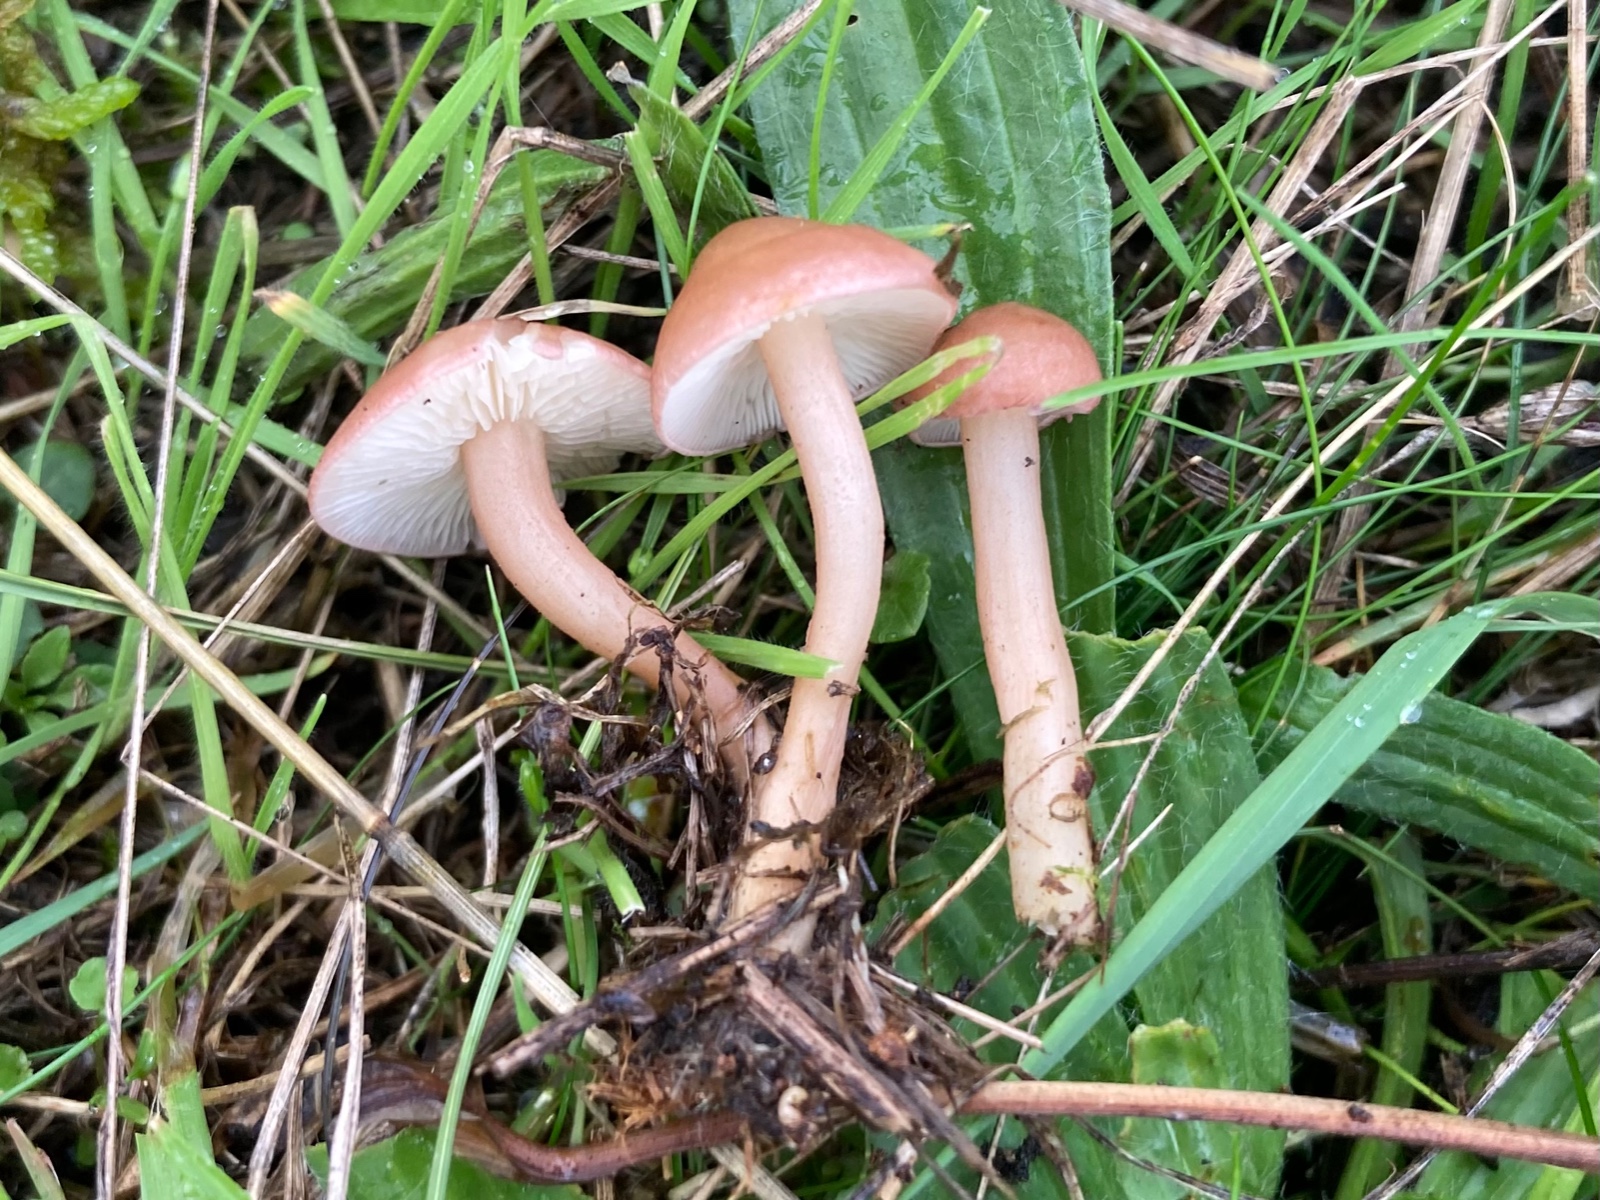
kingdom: Fungi
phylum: Basidiomycota
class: Agaricomycetes
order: Agaricales
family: Lyophyllaceae
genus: Calocybe
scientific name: Calocybe carnea
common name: rosa fagerhat
